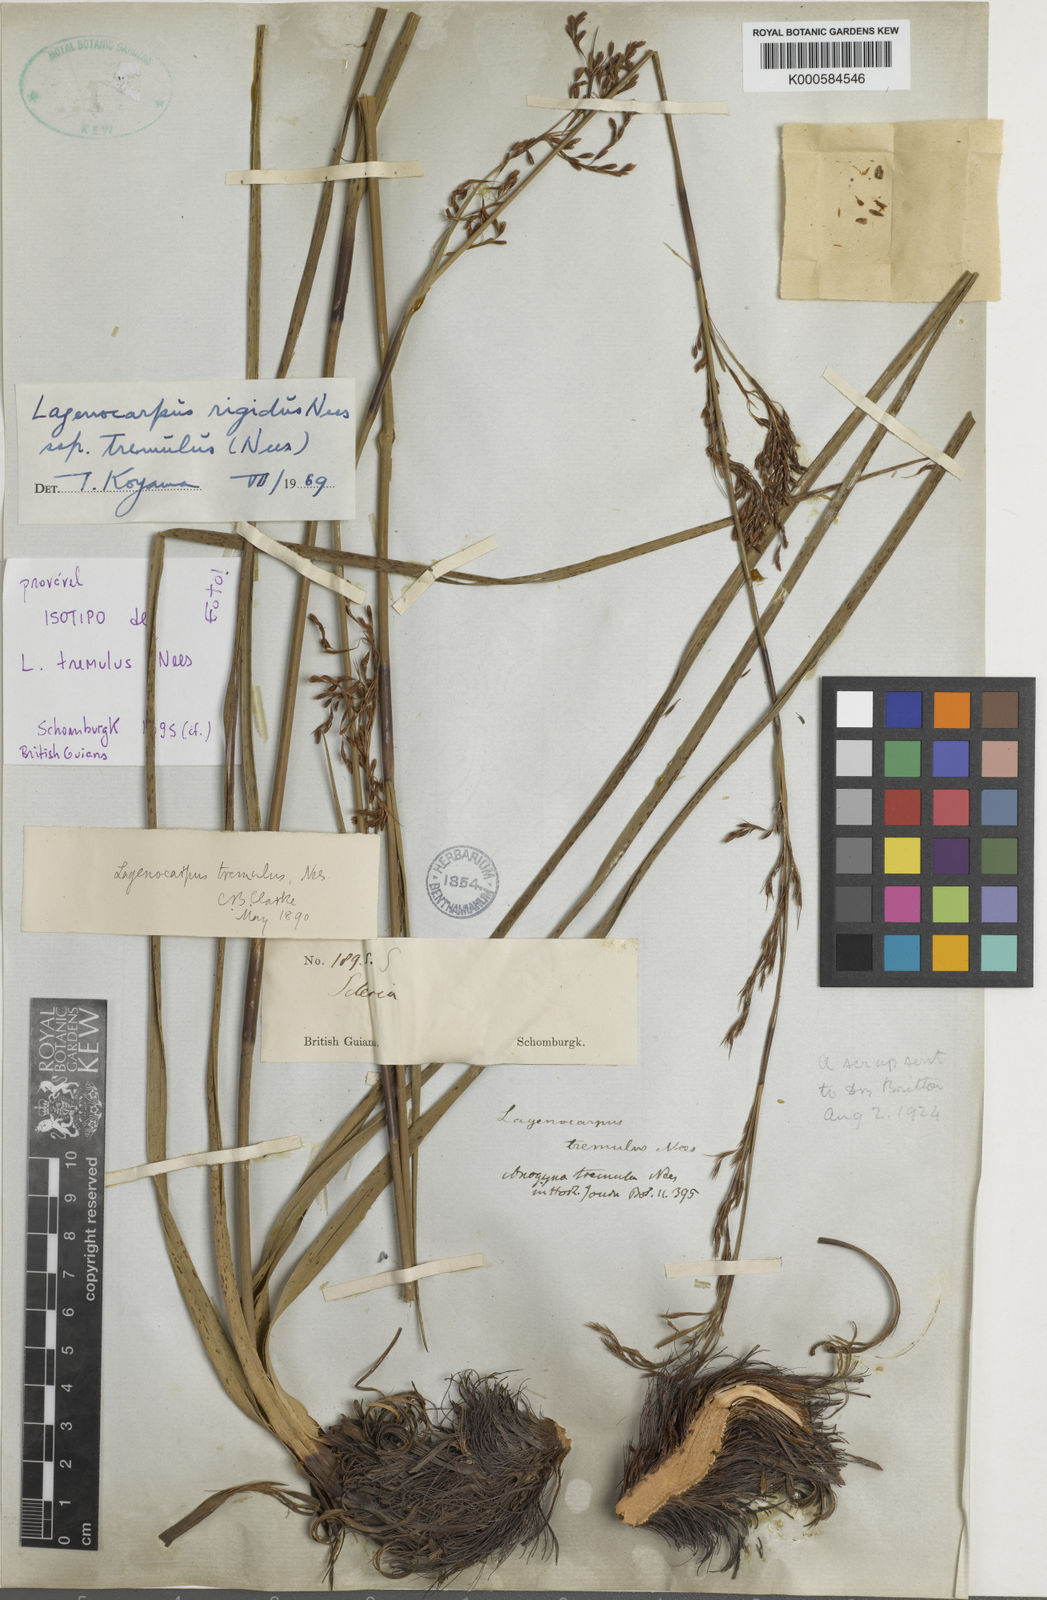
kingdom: Plantae
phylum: Tracheophyta
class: Liliopsida
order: Poales
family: Cyperaceae
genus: Lagenocarpus
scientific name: Lagenocarpus rigidus
